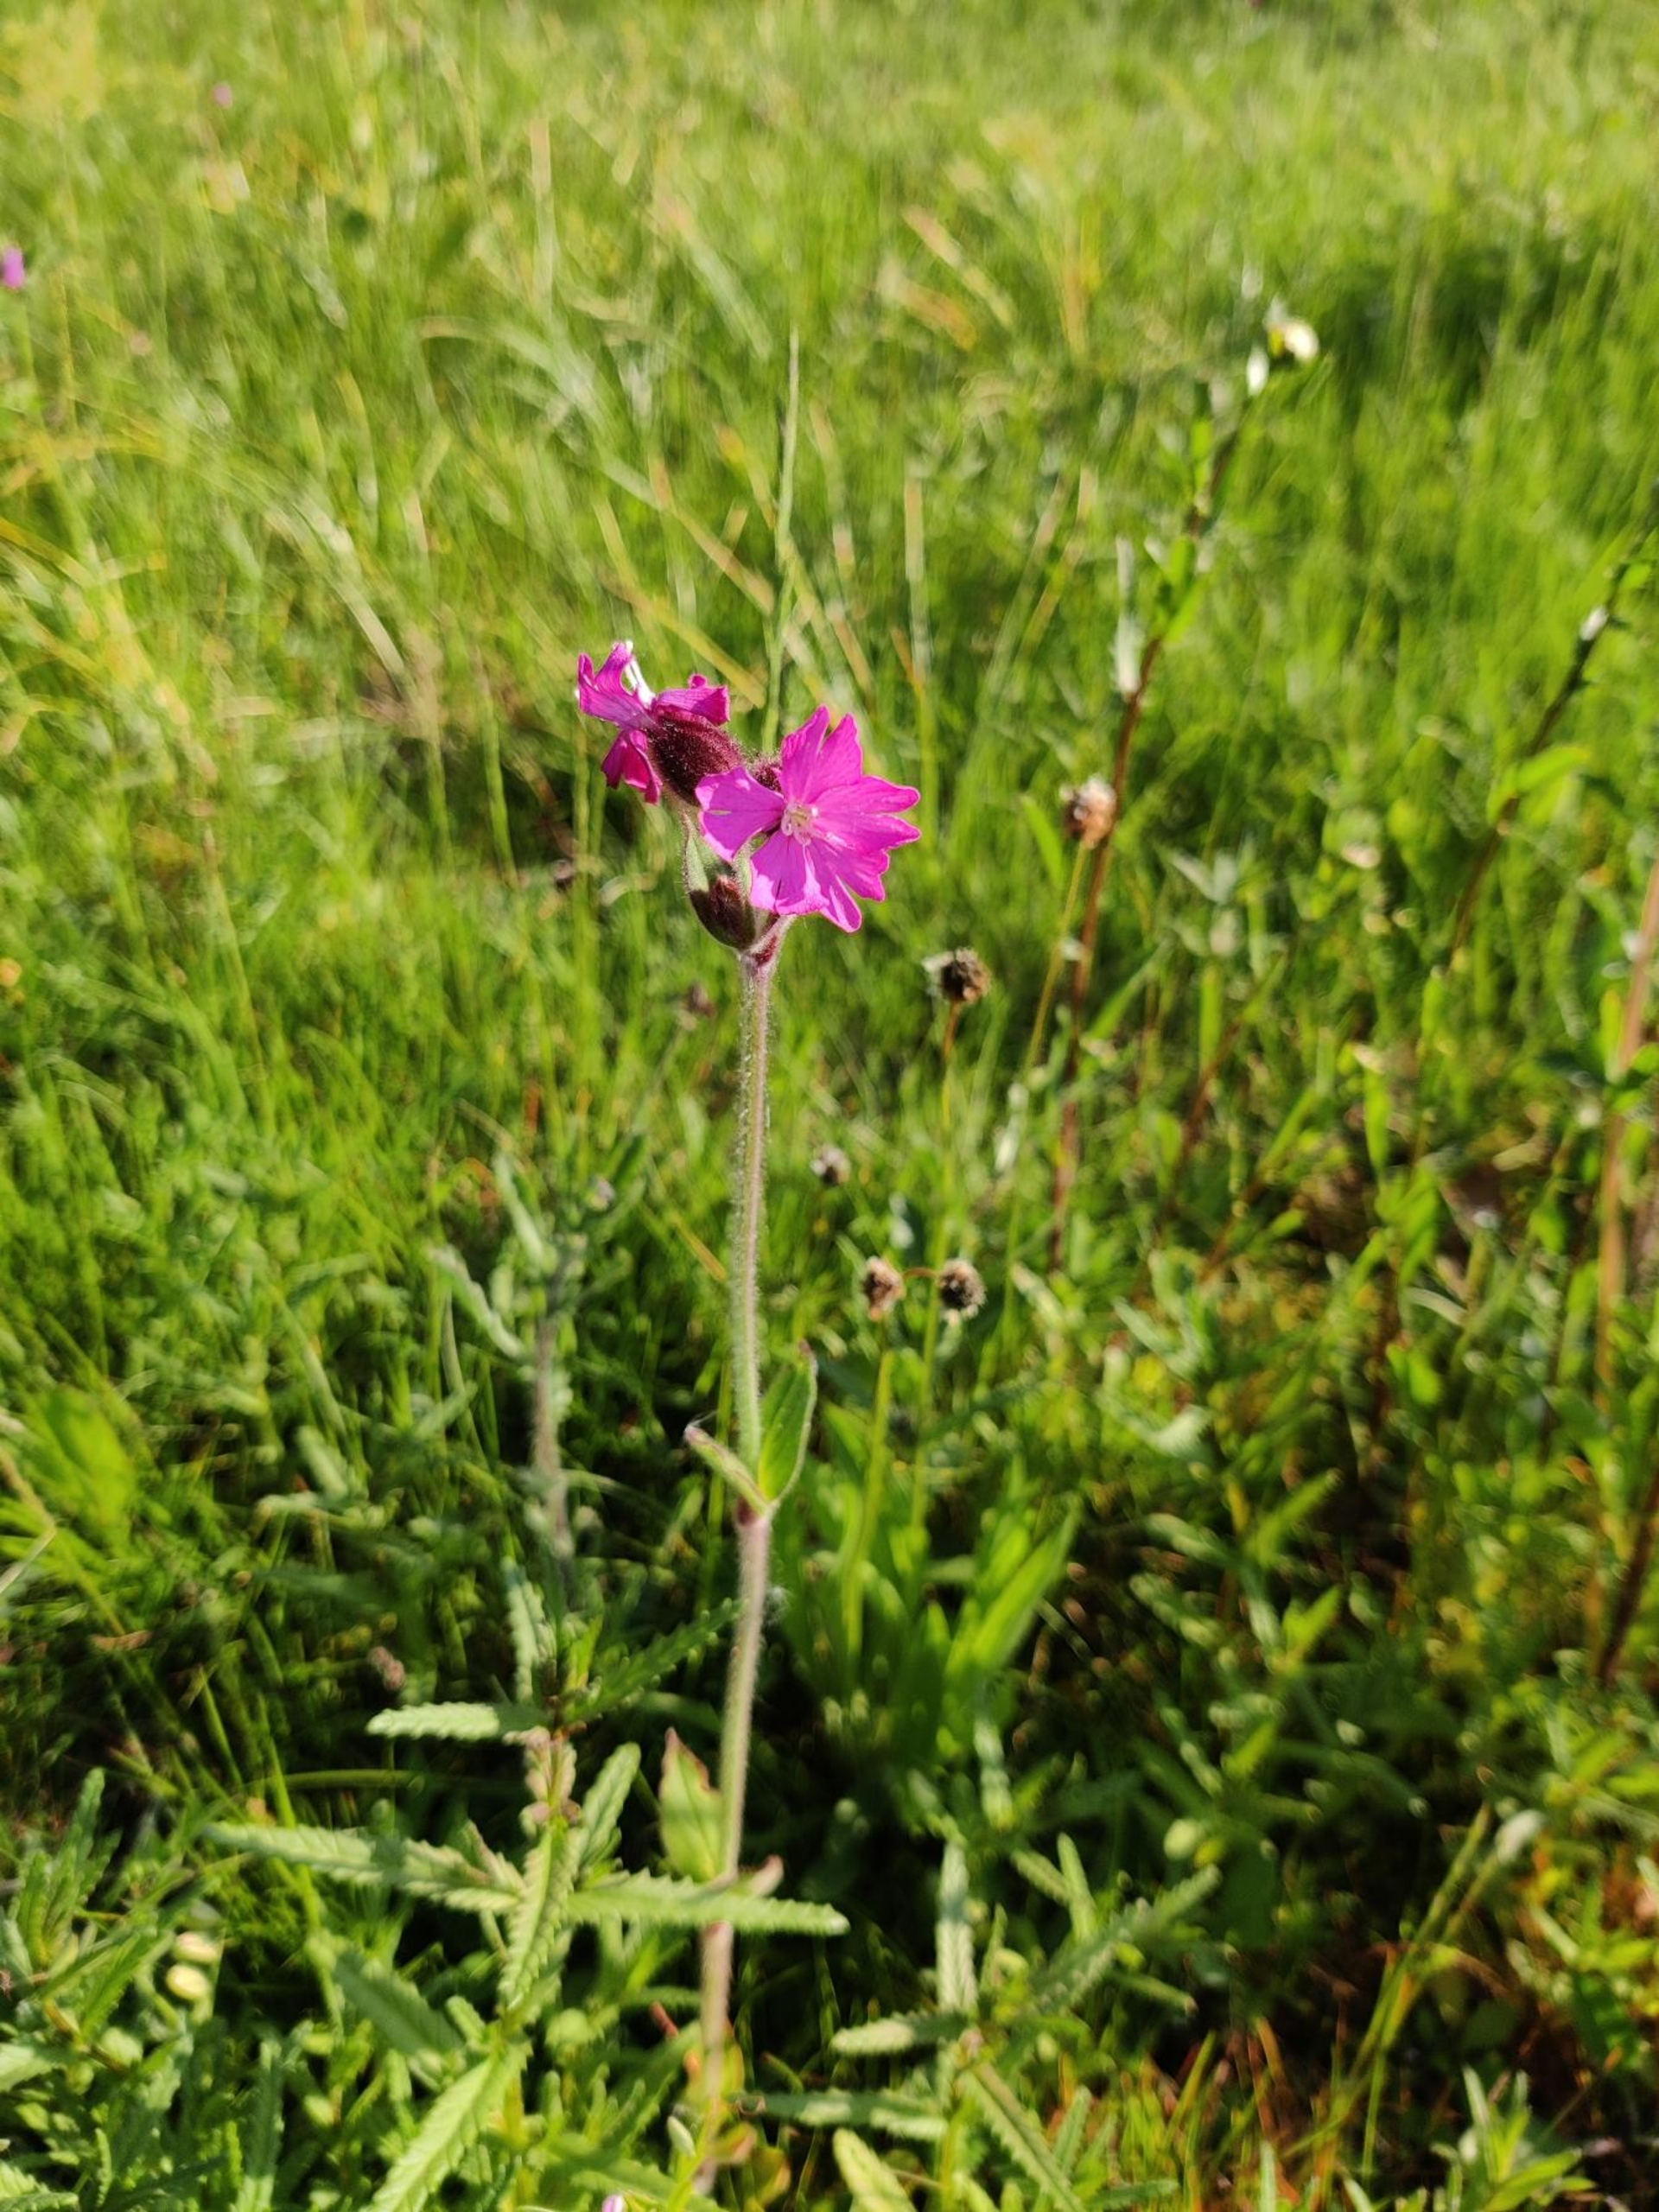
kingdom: Plantae
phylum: Tracheophyta
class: Magnoliopsida
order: Caryophyllales
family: Caryophyllaceae
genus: Silene
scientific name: Silene dioica
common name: Dagpragtstjerne
